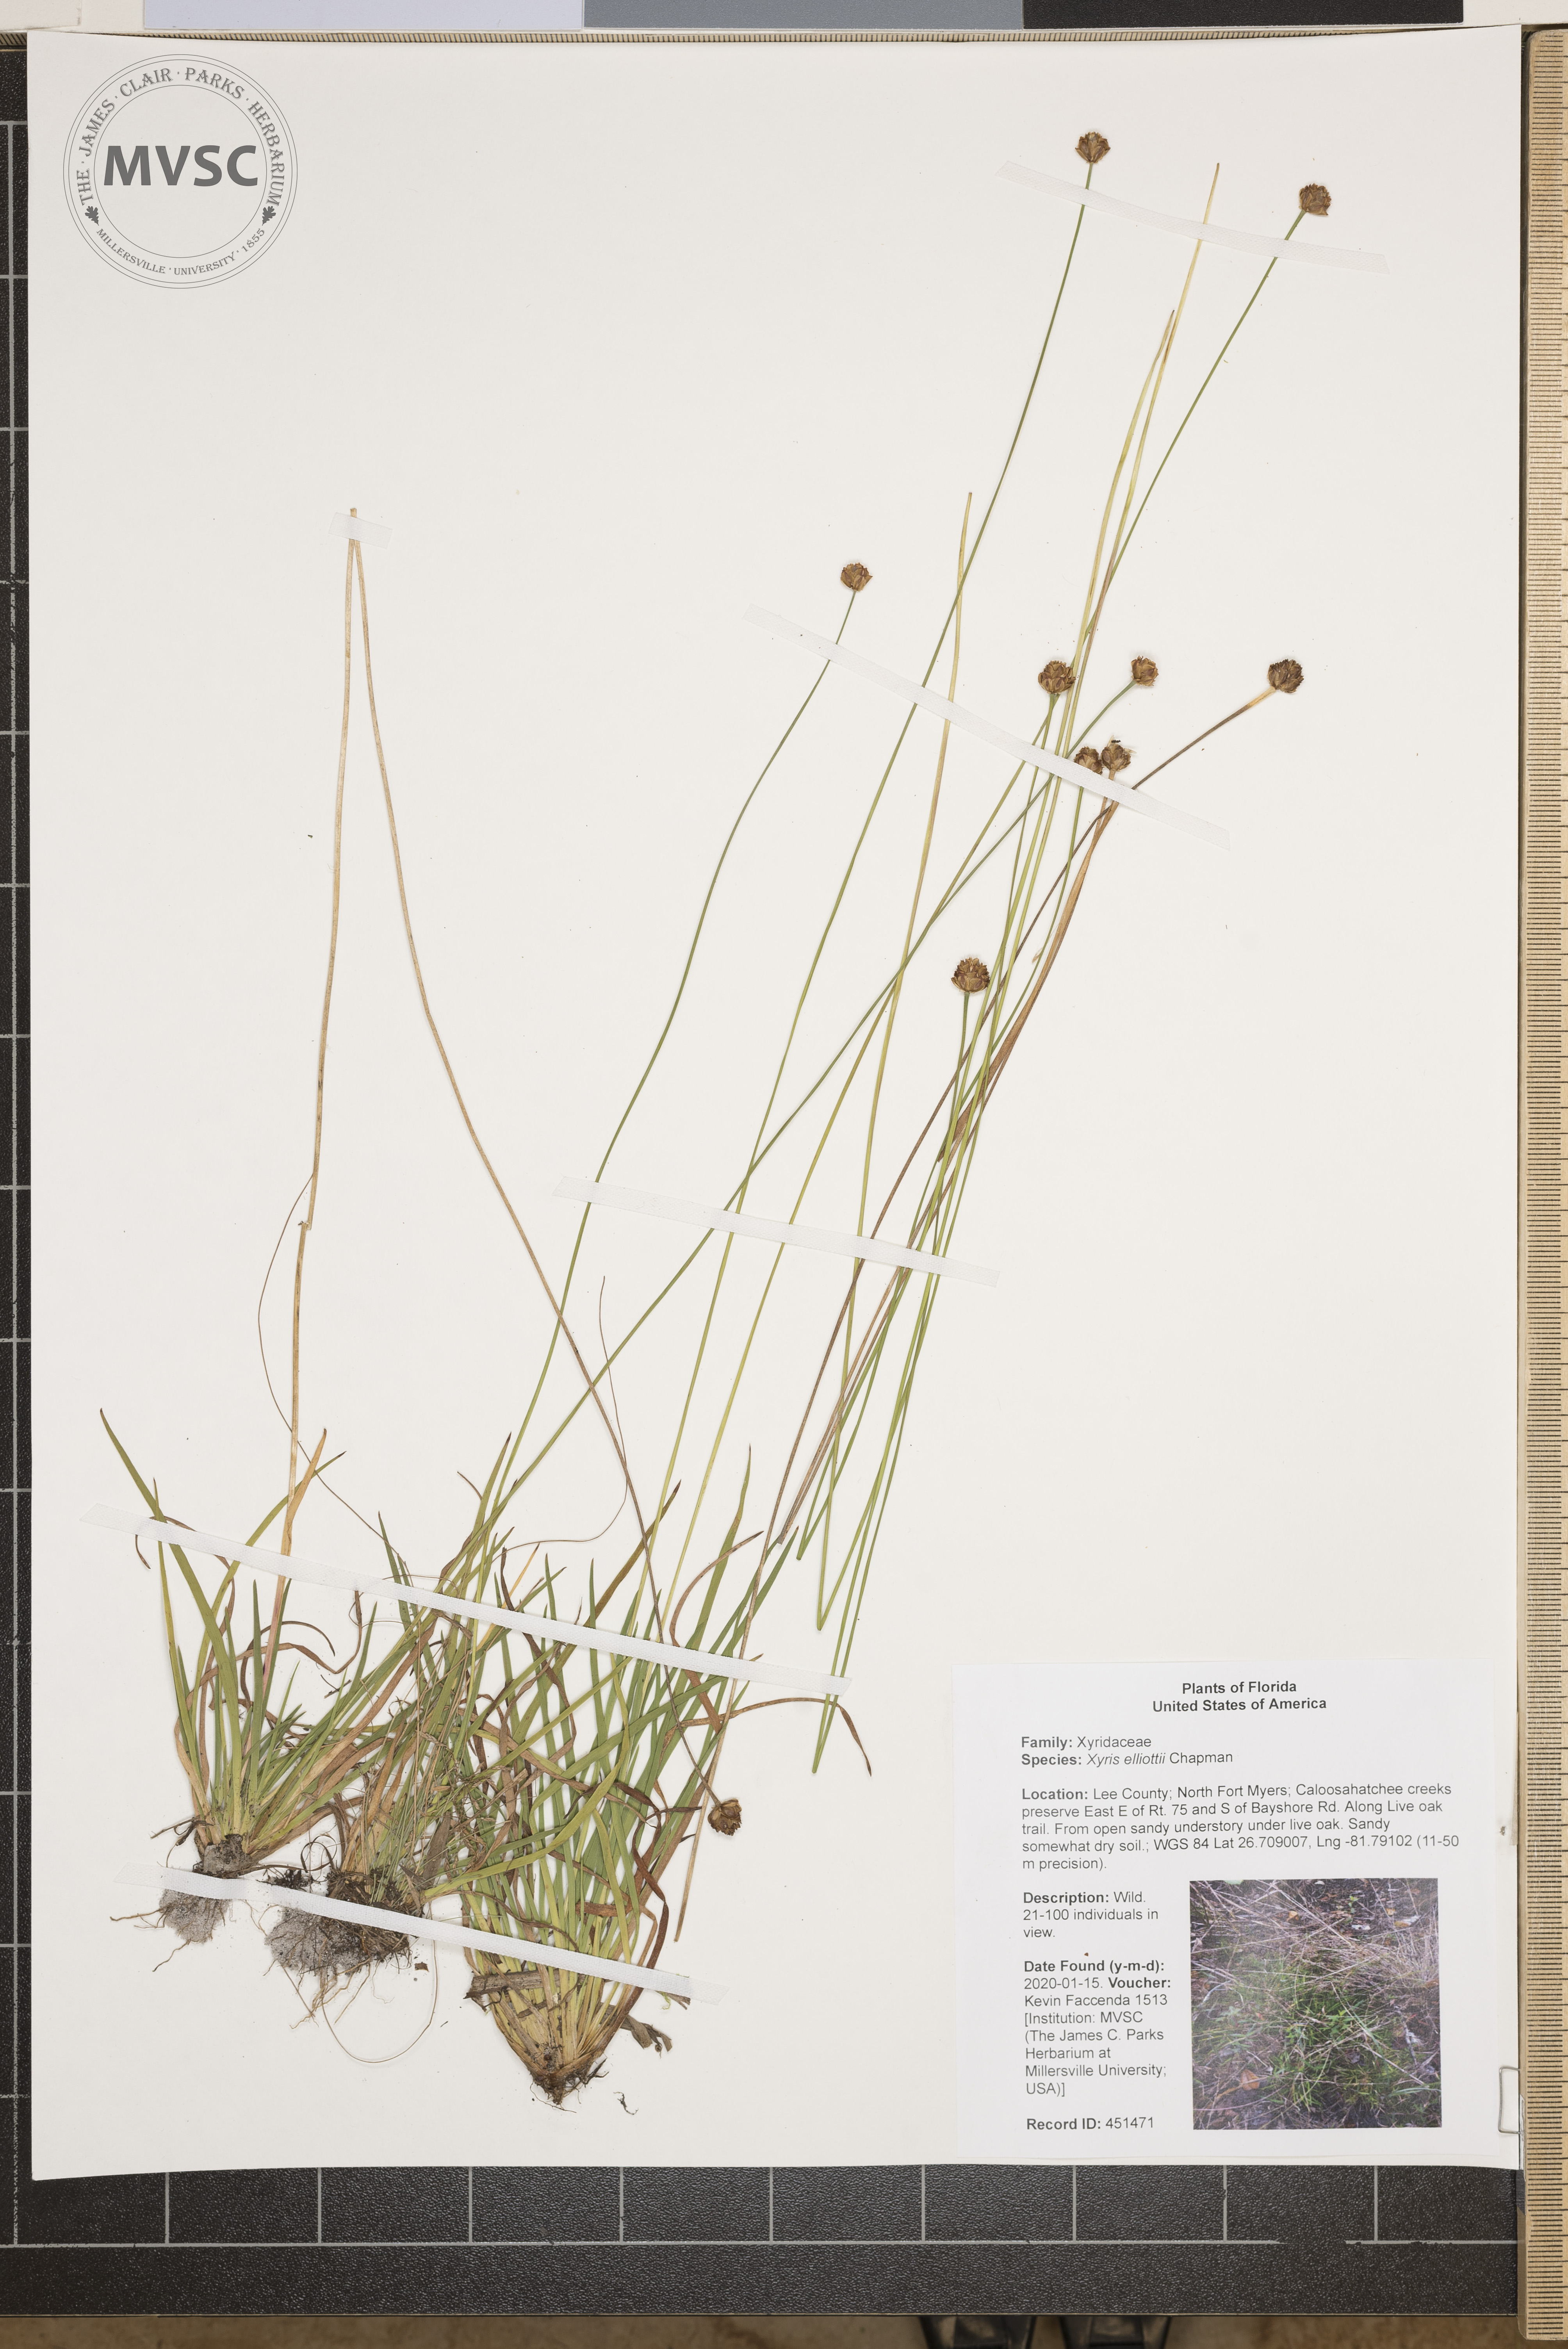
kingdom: Plantae
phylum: Tracheophyta
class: Liliopsida
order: Poales
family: Xyridaceae
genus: Xyris
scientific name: Xyris elliottii
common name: Elliot's yelloweyed grass
